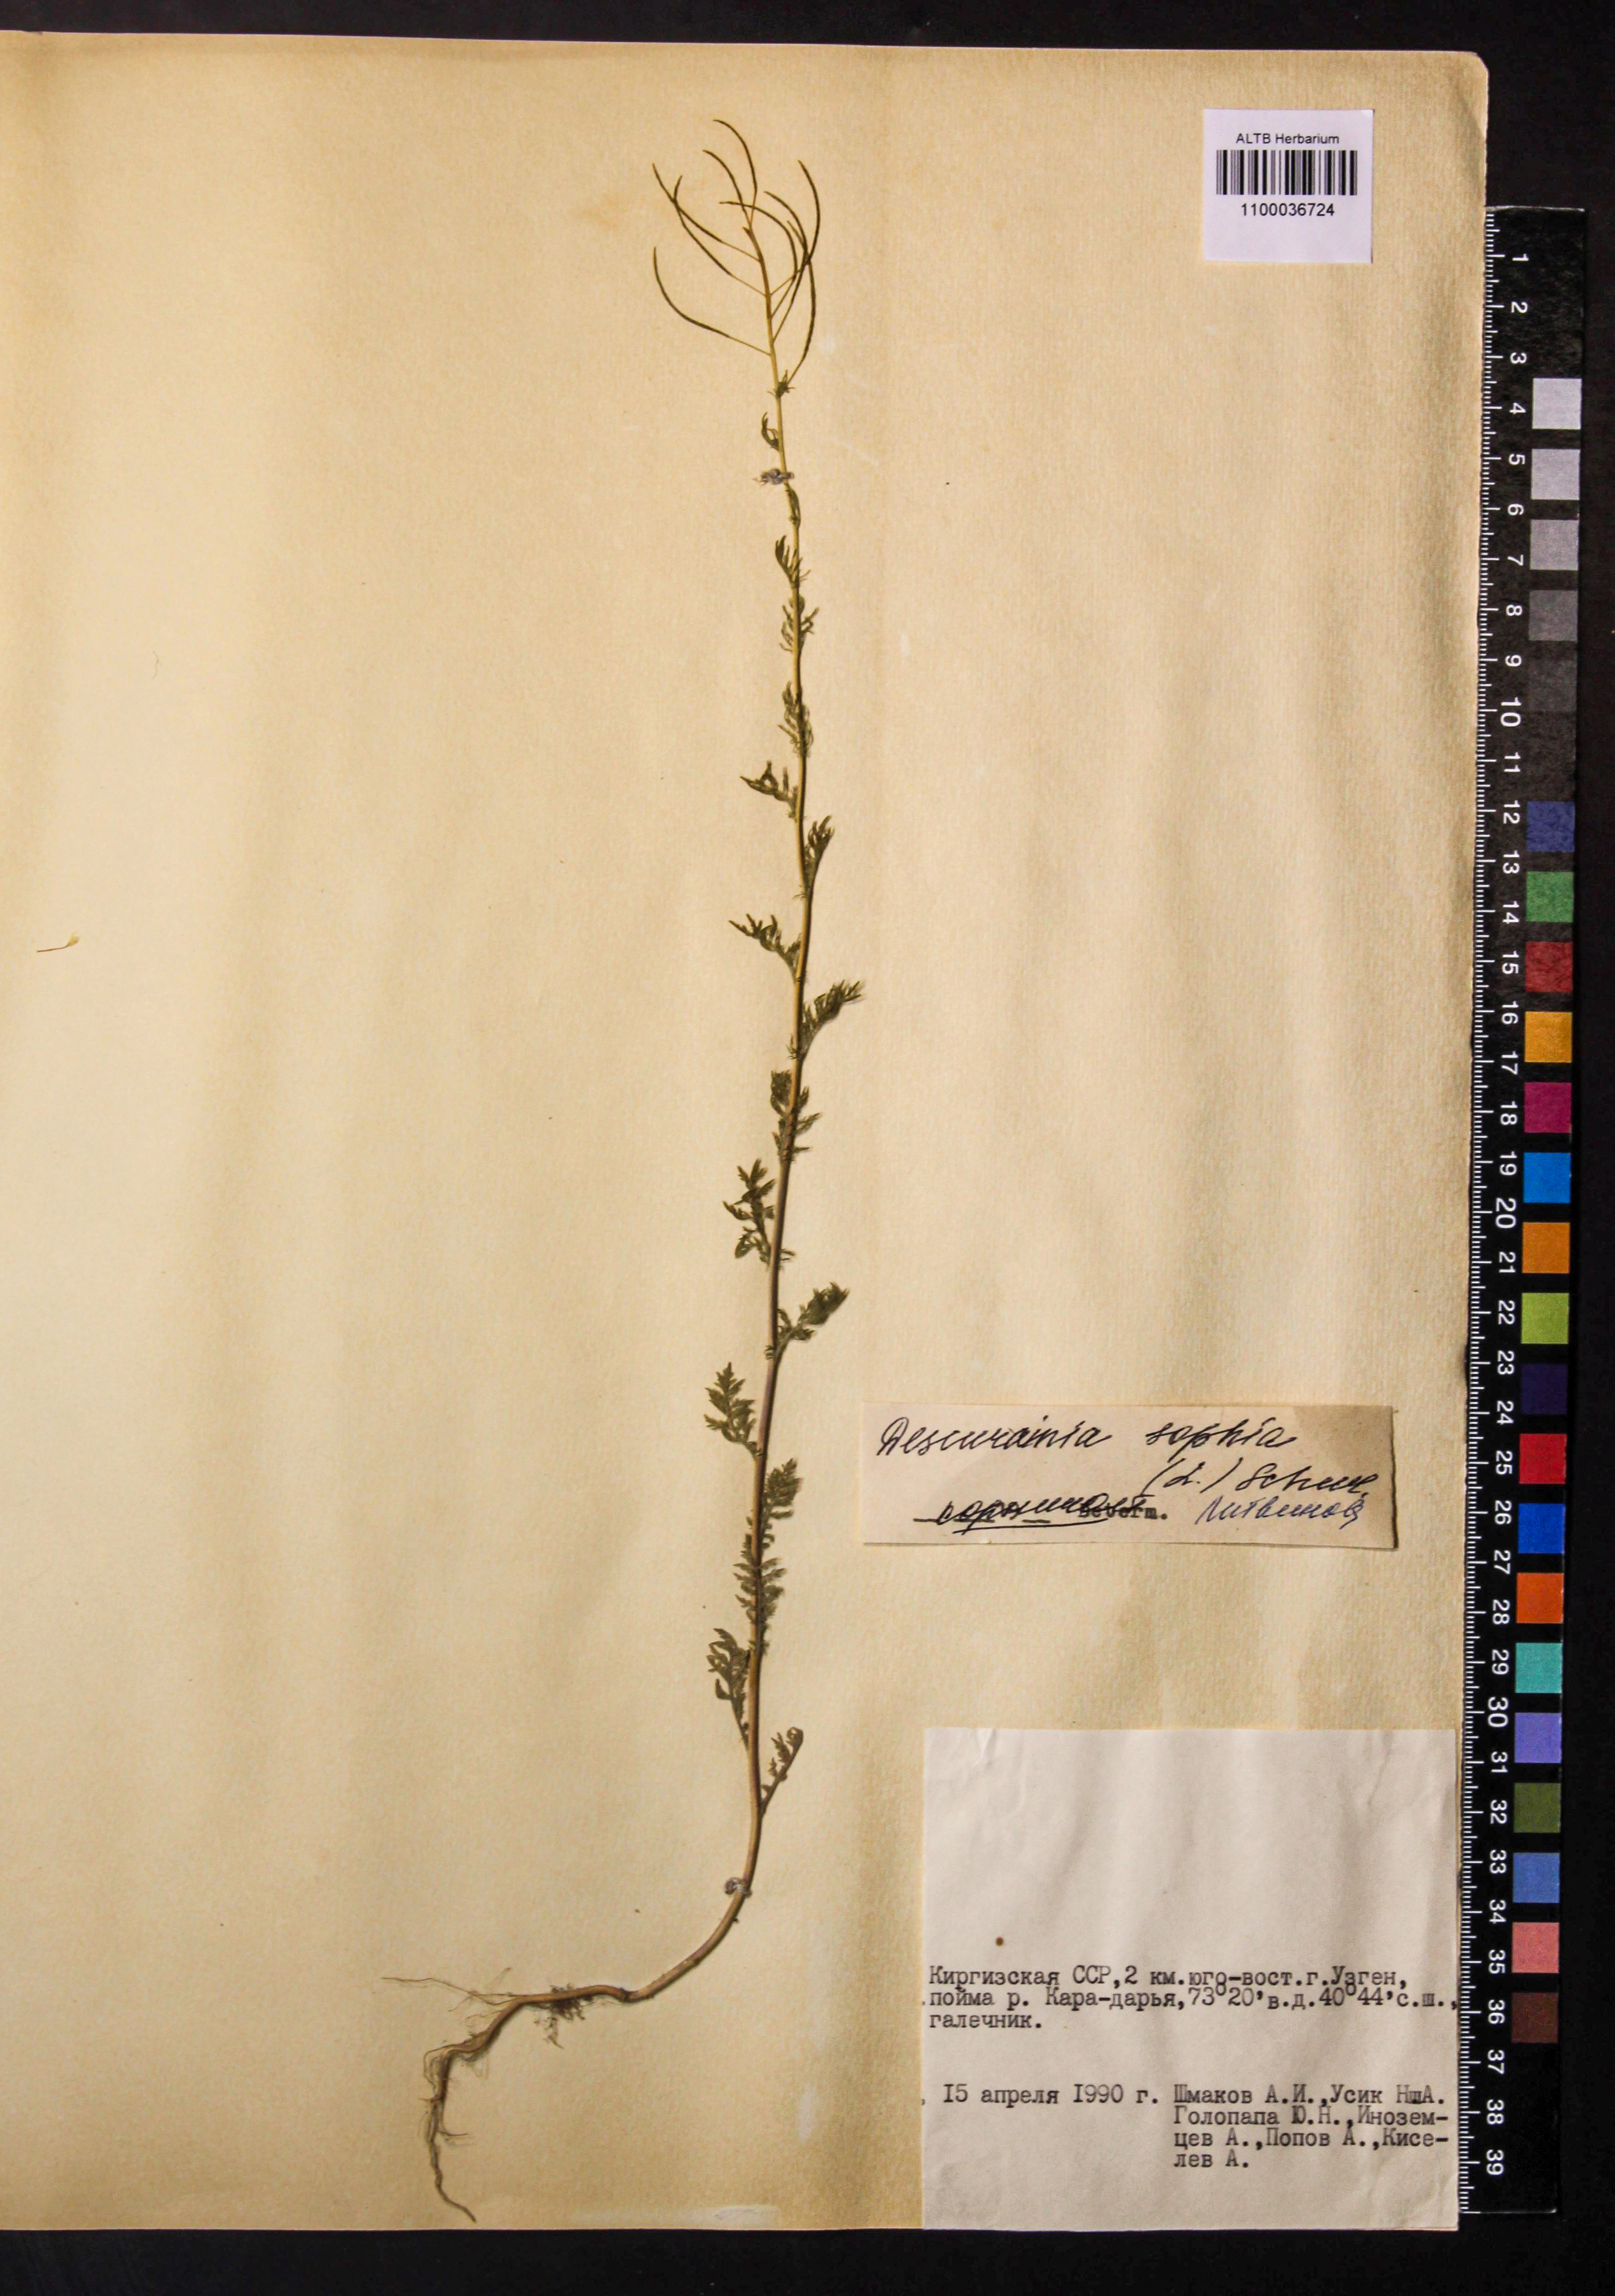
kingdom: Plantae
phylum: Tracheophyta
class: Magnoliopsida
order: Brassicales
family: Brassicaceae
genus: Descurainia
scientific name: Descurainia sophia
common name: Flixweed
